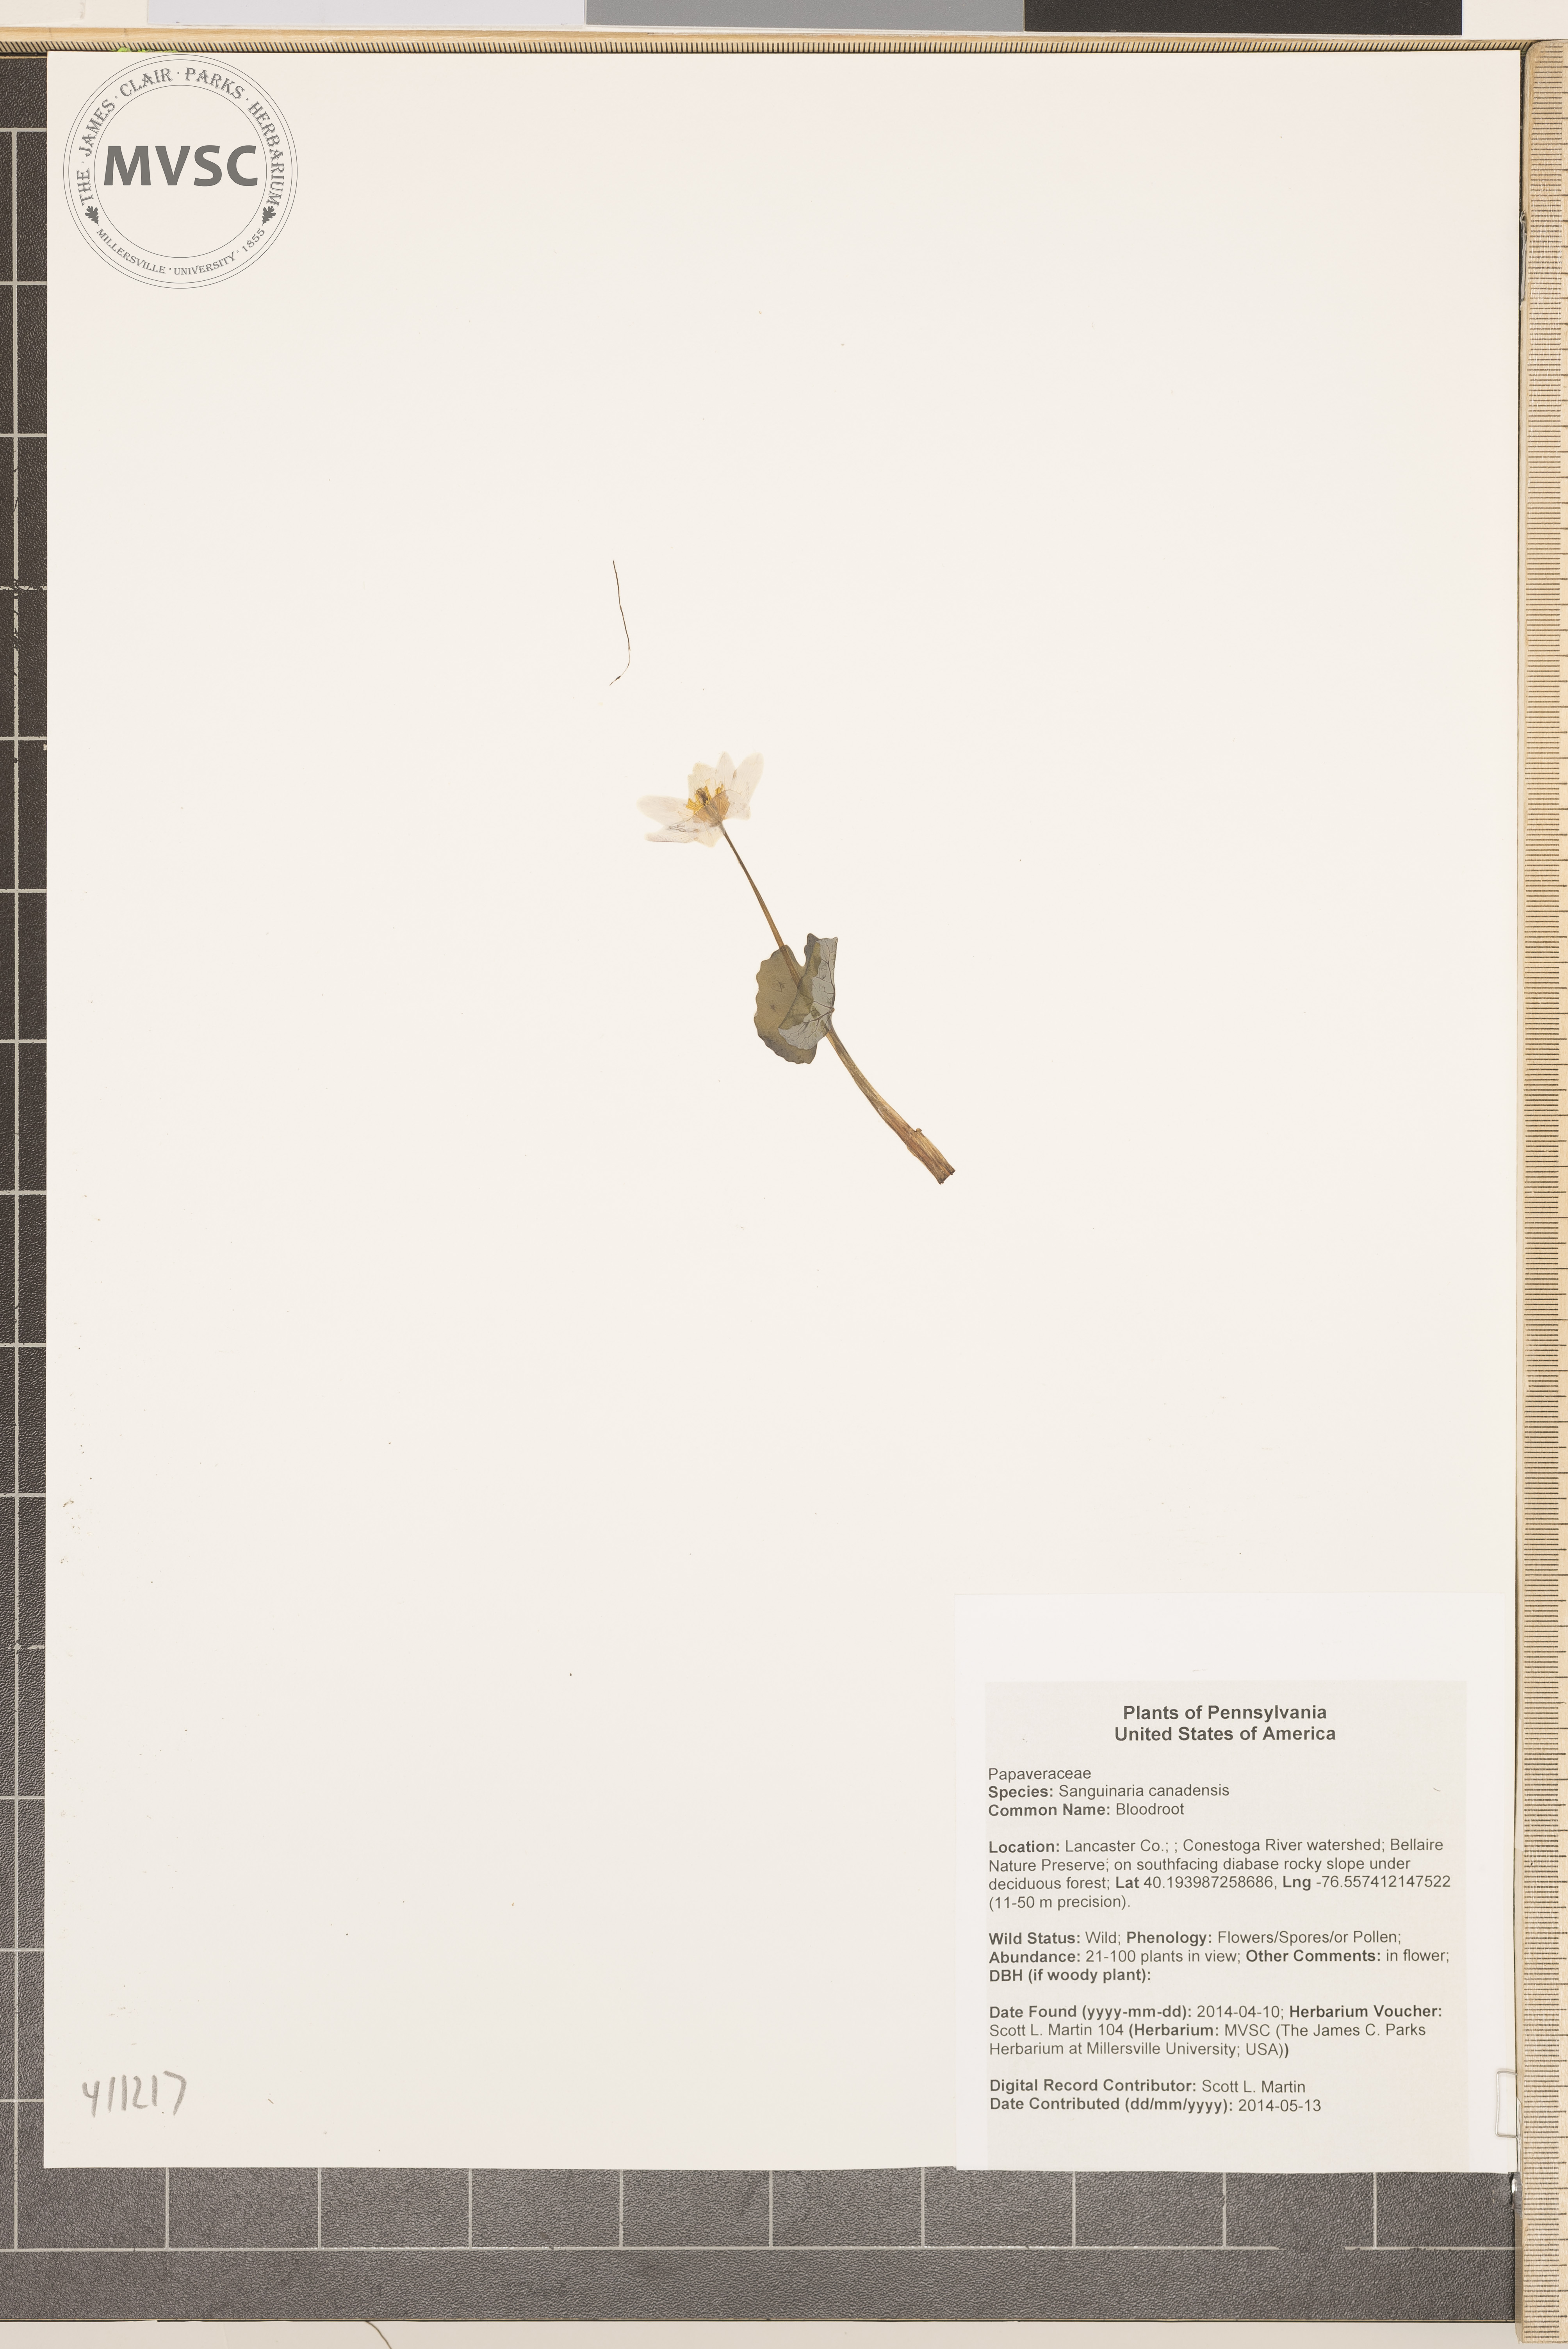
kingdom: Plantae
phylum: Tracheophyta
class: Magnoliopsida
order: Ranunculales
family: Papaveraceae
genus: Sanguinaria
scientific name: Sanguinaria canadensis
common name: Bloodroot
